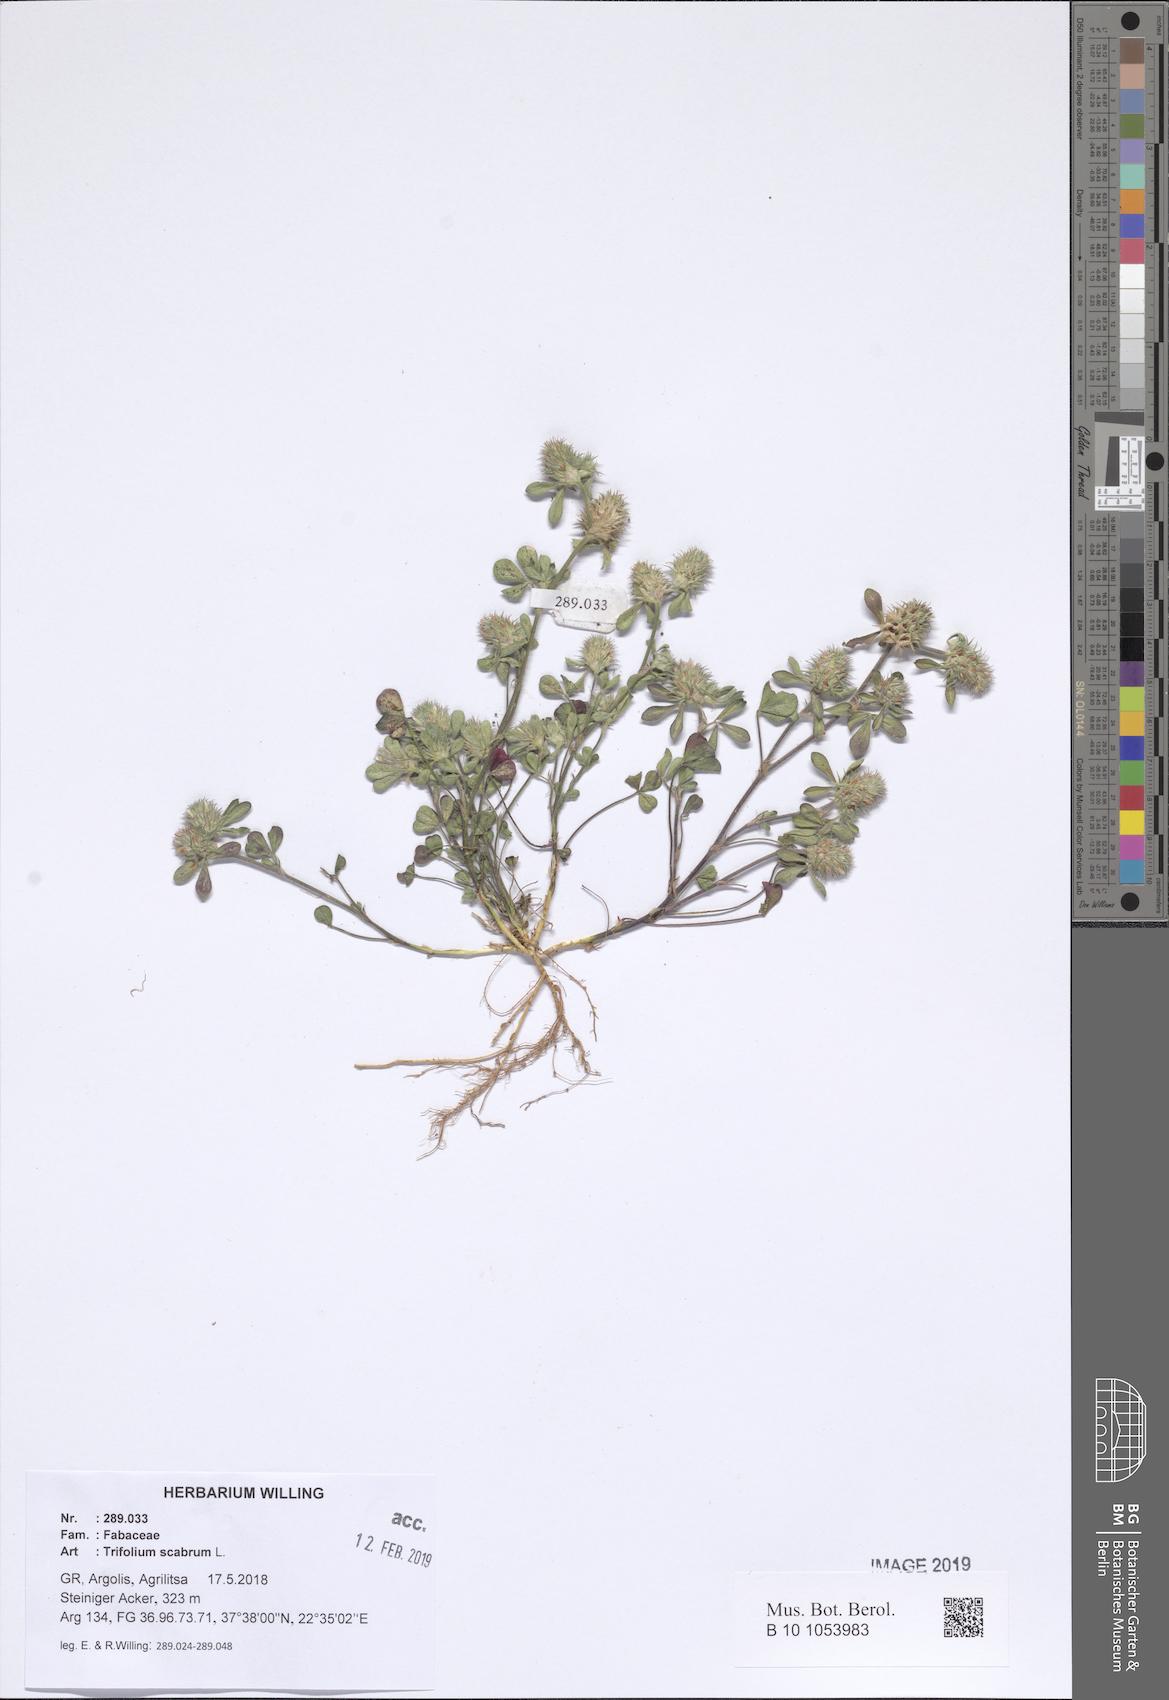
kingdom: Plantae
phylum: Tracheophyta
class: Magnoliopsida
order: Fabales
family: Fabaceae
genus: Trifolium
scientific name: Trifolium scabrum
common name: Rough clover
